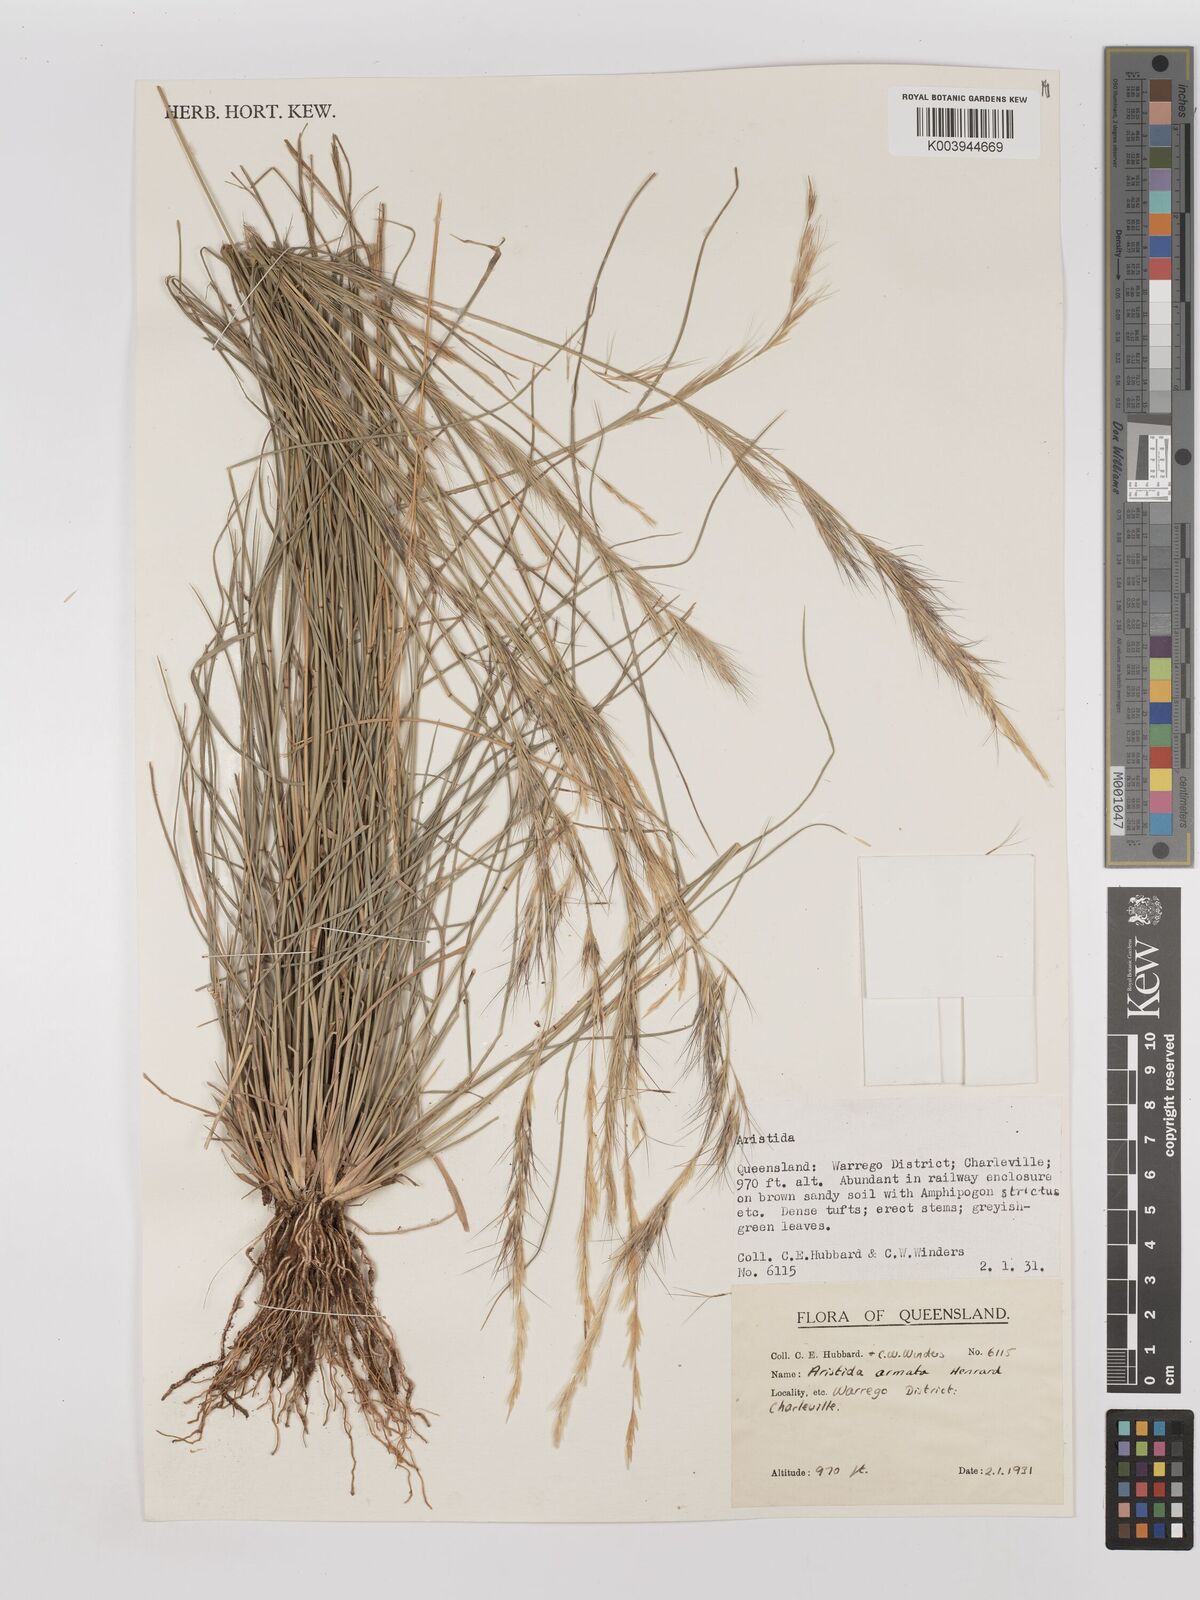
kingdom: Plantae
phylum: Tracheophyta
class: Liliopsida
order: Poales
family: Poaceae
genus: Aristida
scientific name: Aristida calycina
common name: Dark wire grass
